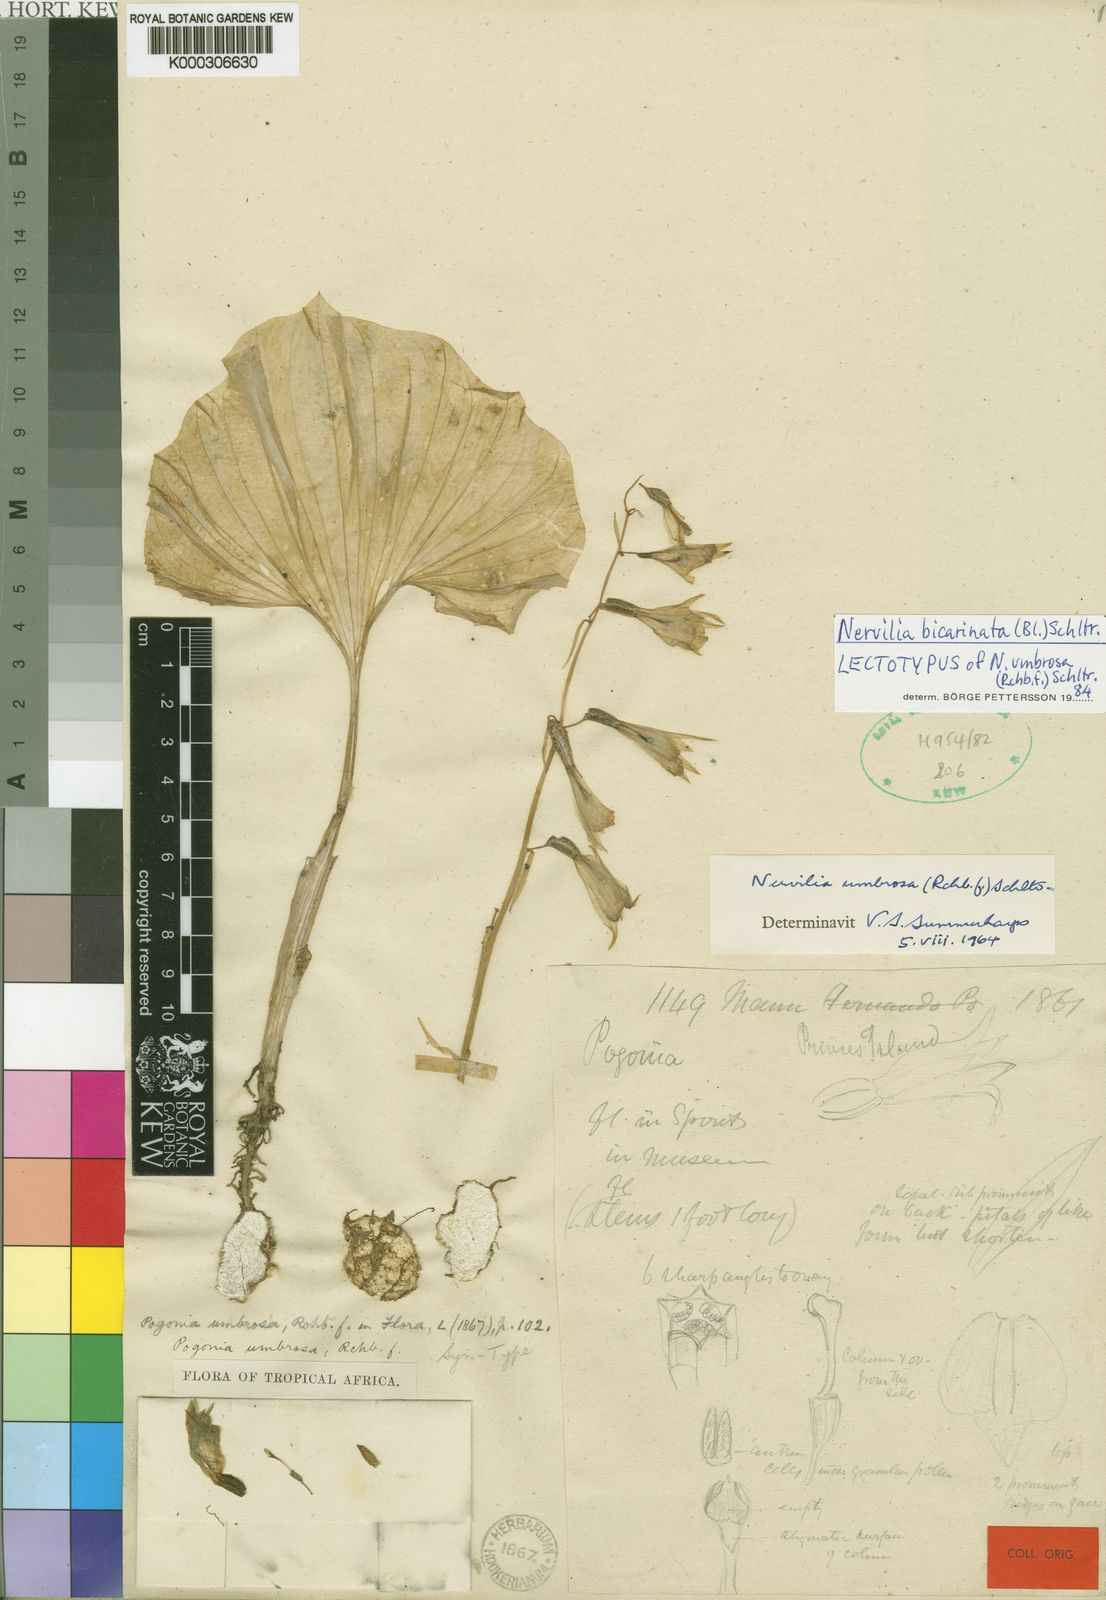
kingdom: Plantae
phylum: Tracheophyta
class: Liliopsida
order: Asparagales
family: Orchidaceae
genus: Nervilia
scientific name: Nervilia bicarinata
